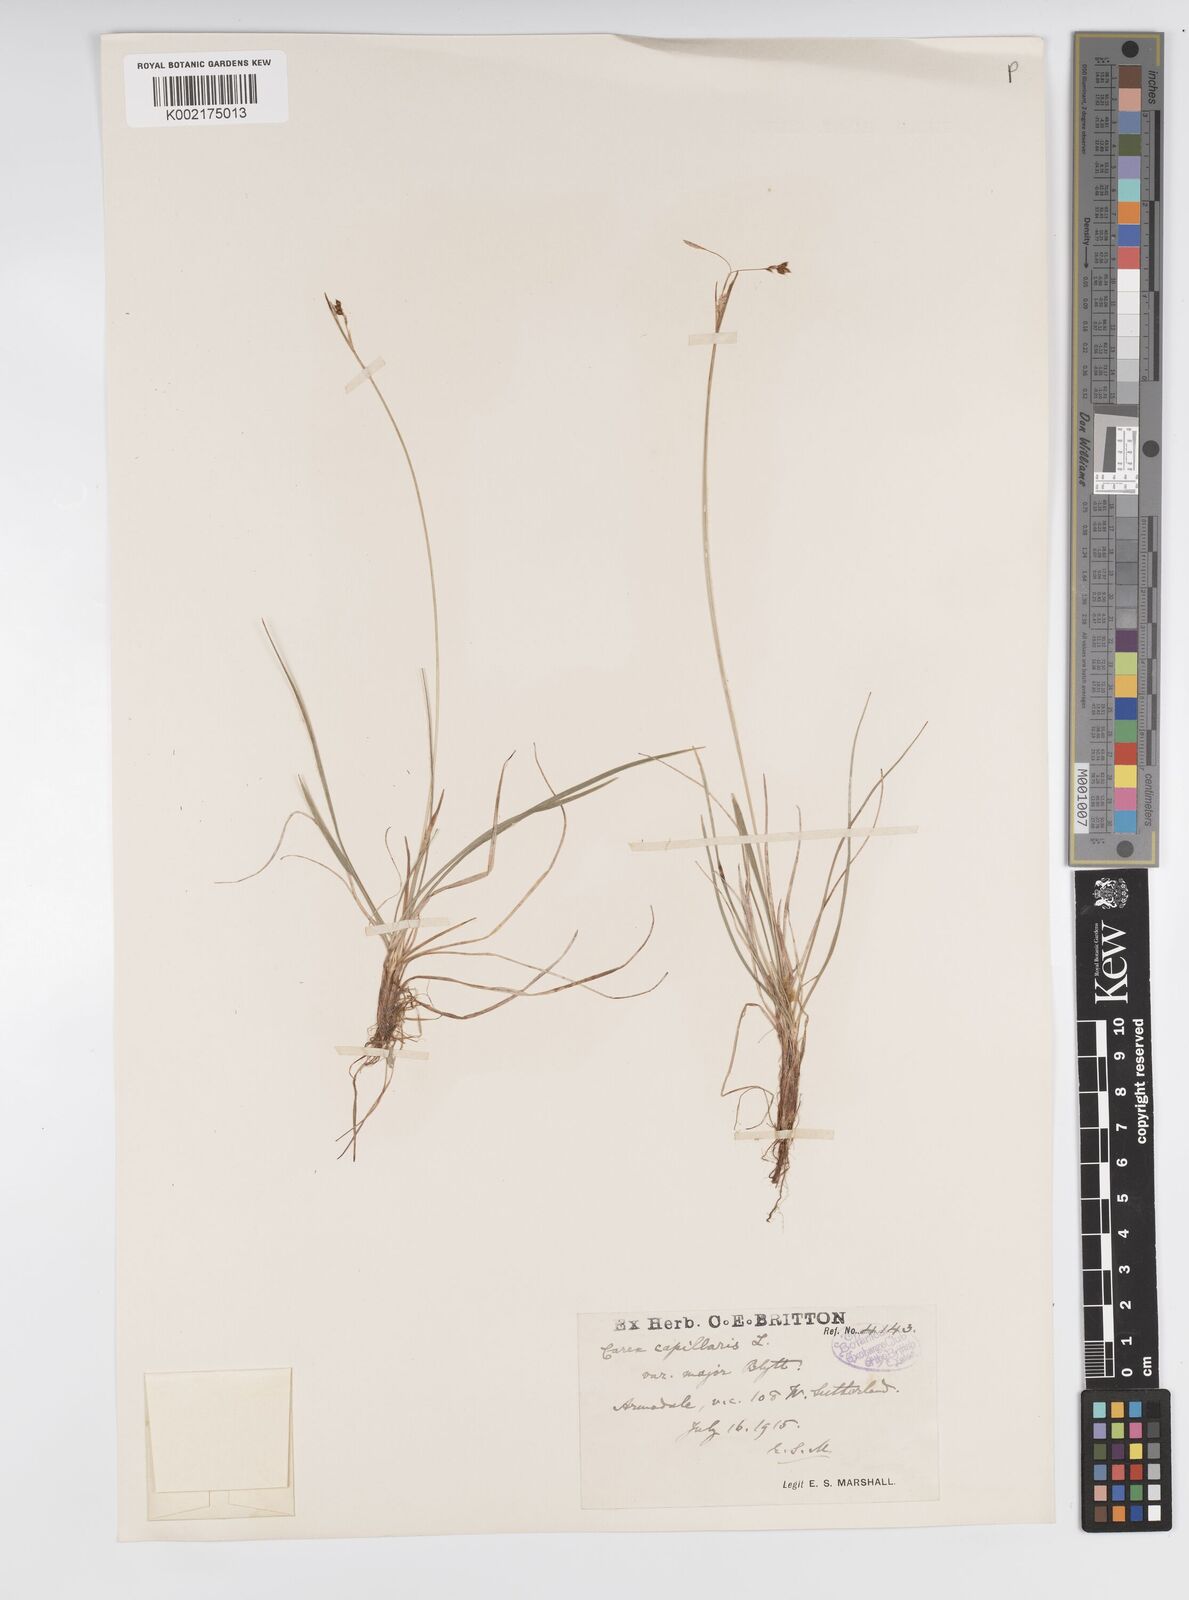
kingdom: Plantae
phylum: Tracheophyta
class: Liliopsida
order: Poales
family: Cyperaceae
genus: Carex
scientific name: Carex capillaris
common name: Hair sedge
